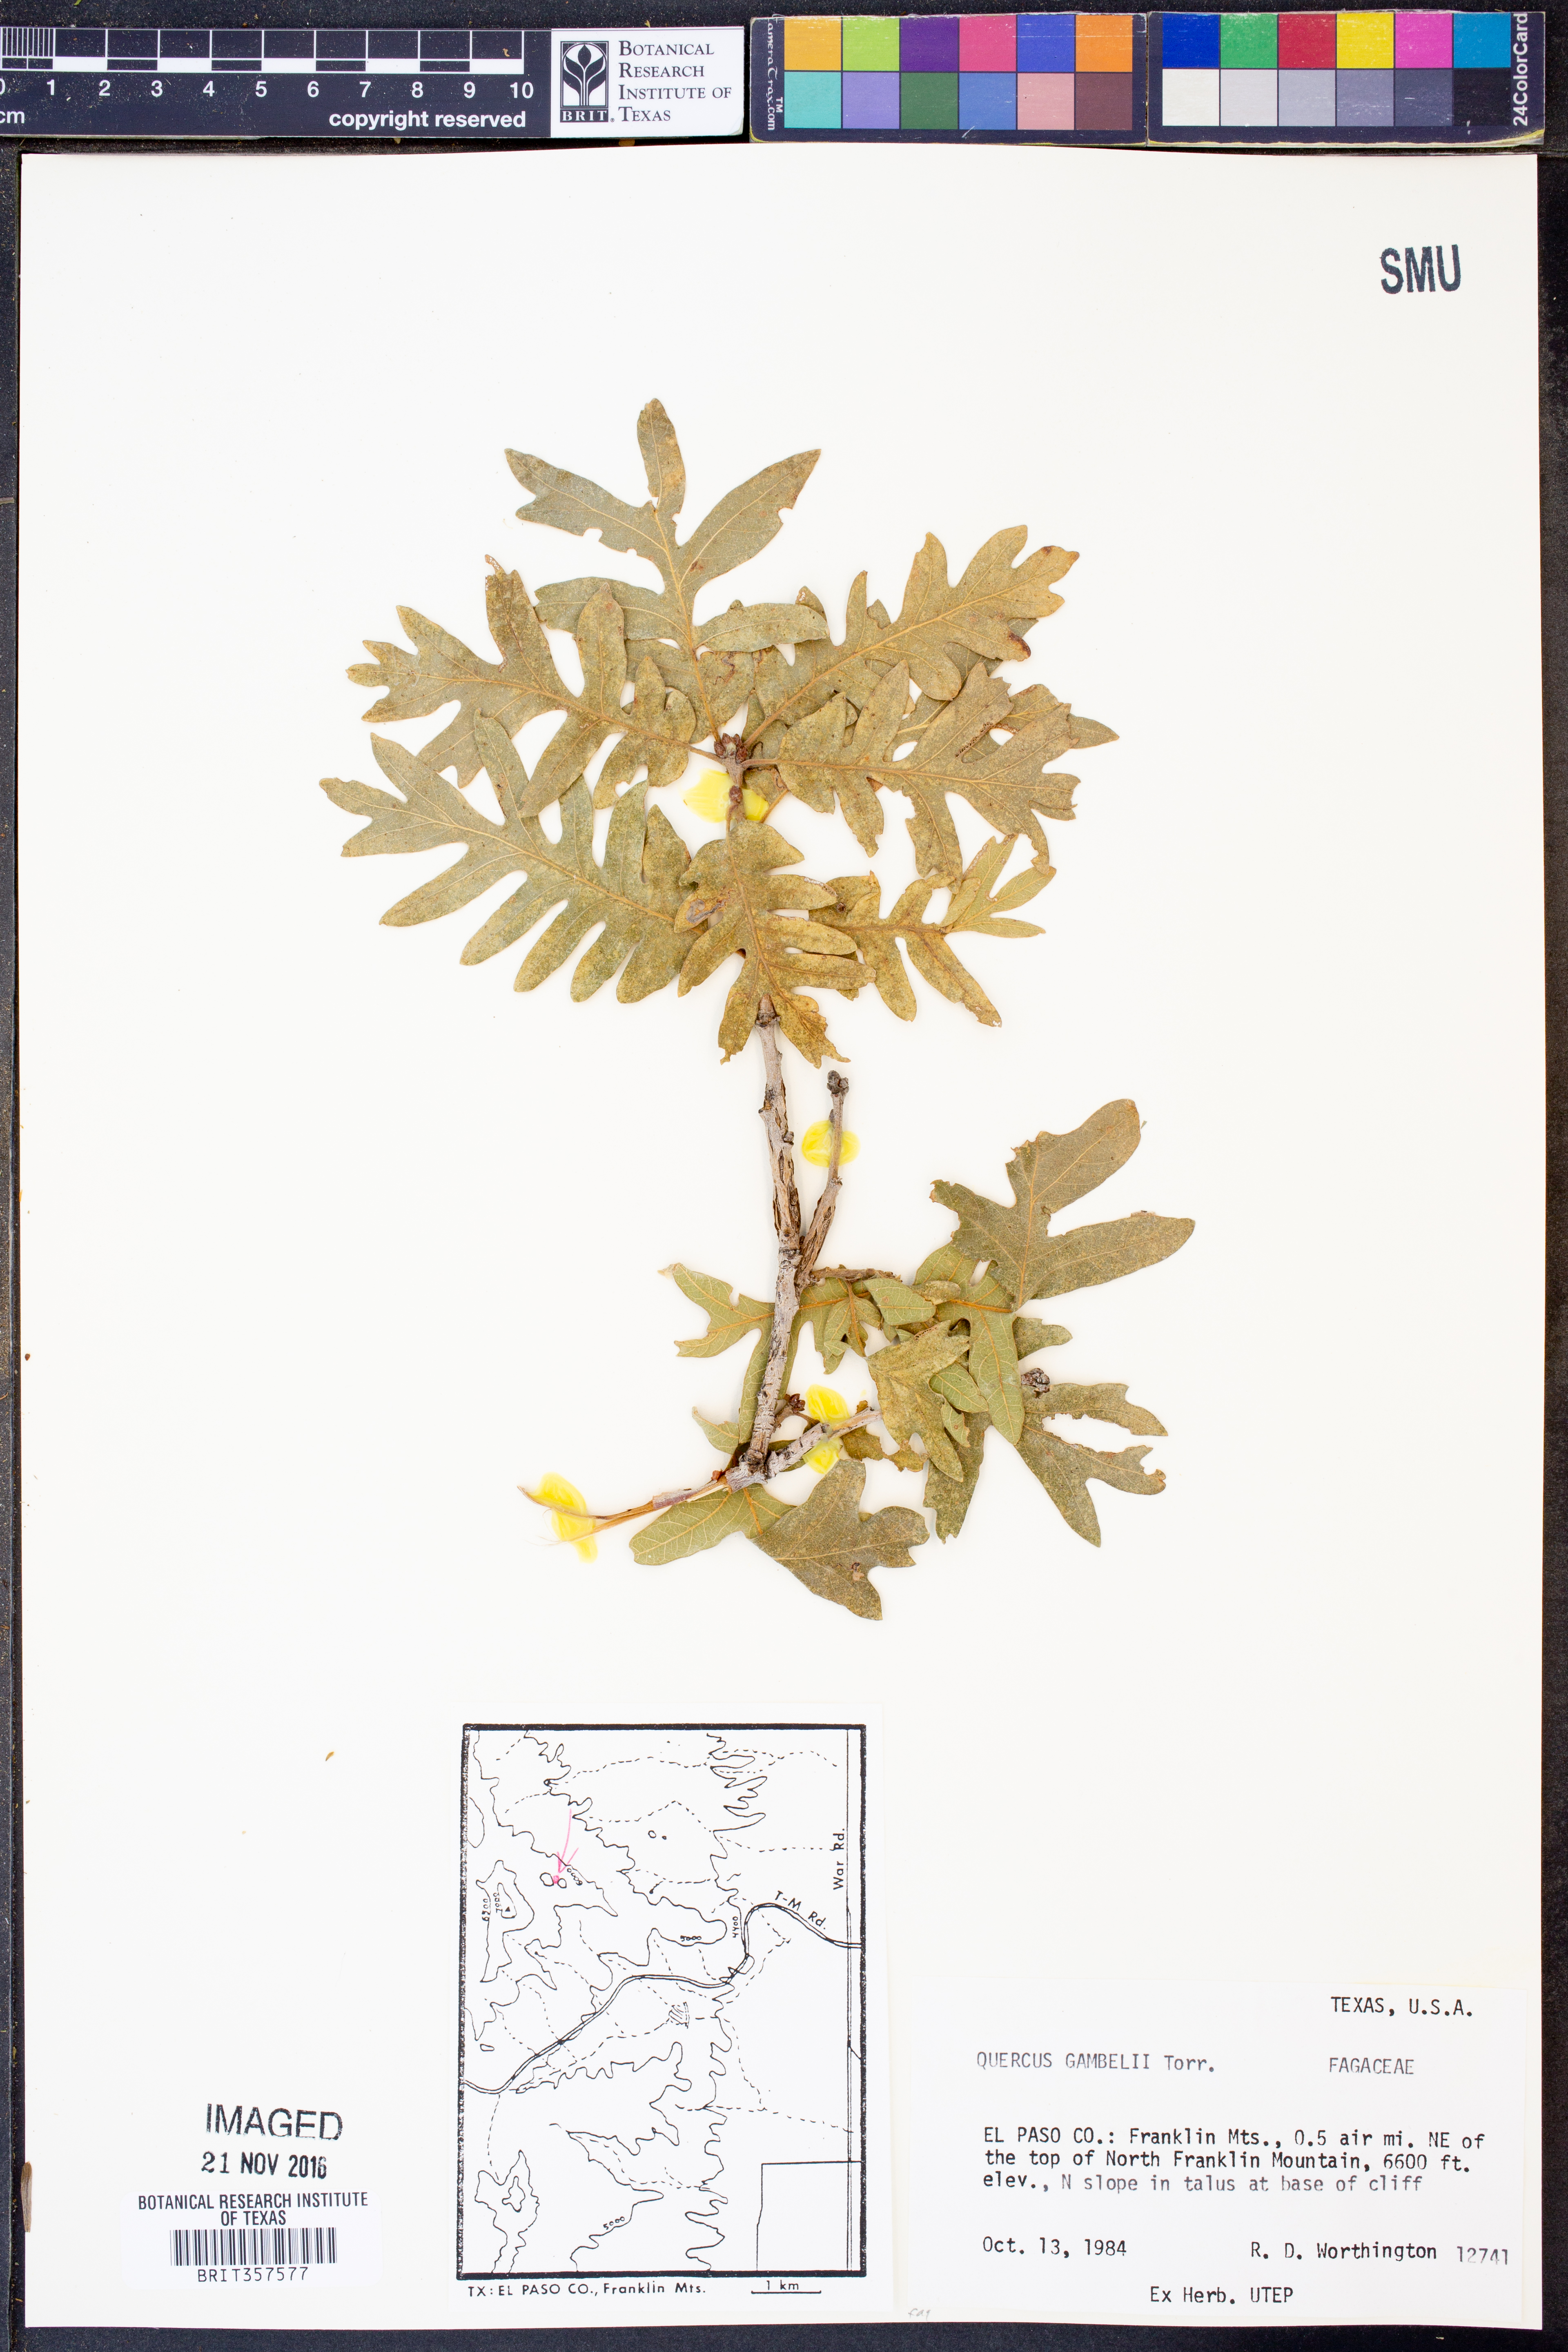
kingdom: Plantae
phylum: Tracheophyta
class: Magnoliopsida
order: Fagales
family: Fagaceae
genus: Quercus
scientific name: Quercus gambelii
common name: Gambel oak
